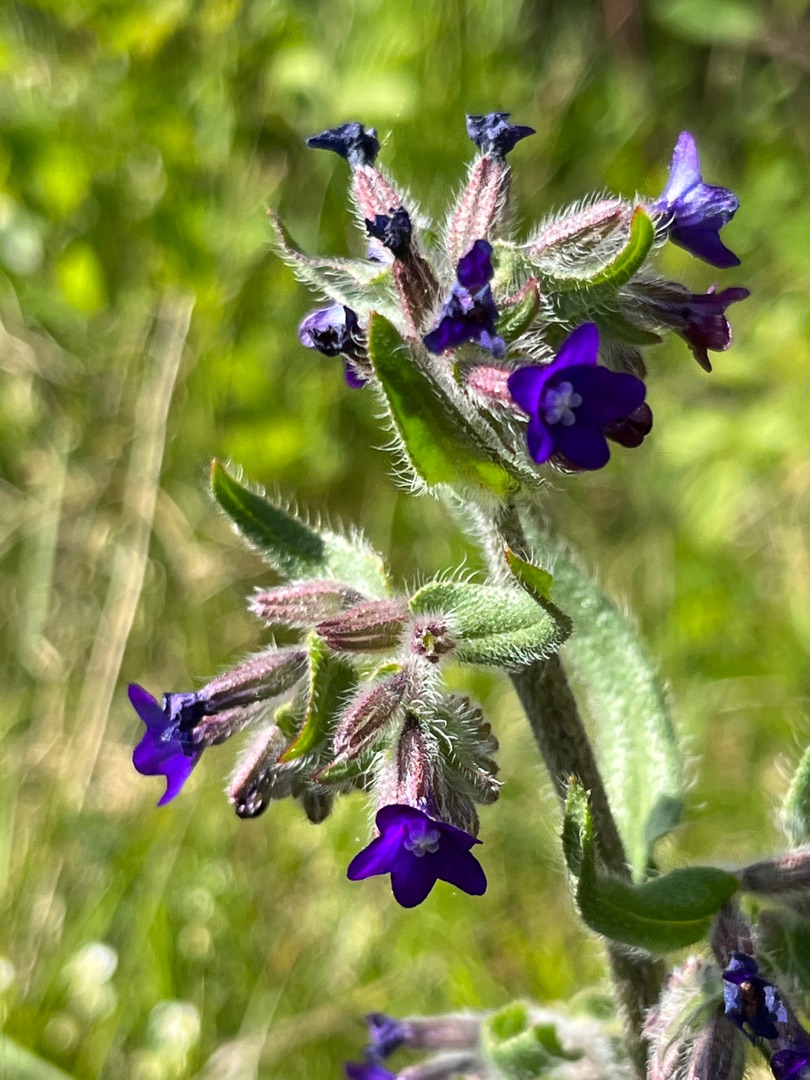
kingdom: Plantae
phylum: Tracheophyta
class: Magnoliopsida
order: Boraginales
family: Boraginaceae
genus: Anchusa
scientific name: Anchusa officinalis
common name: Læge-oksetunge
